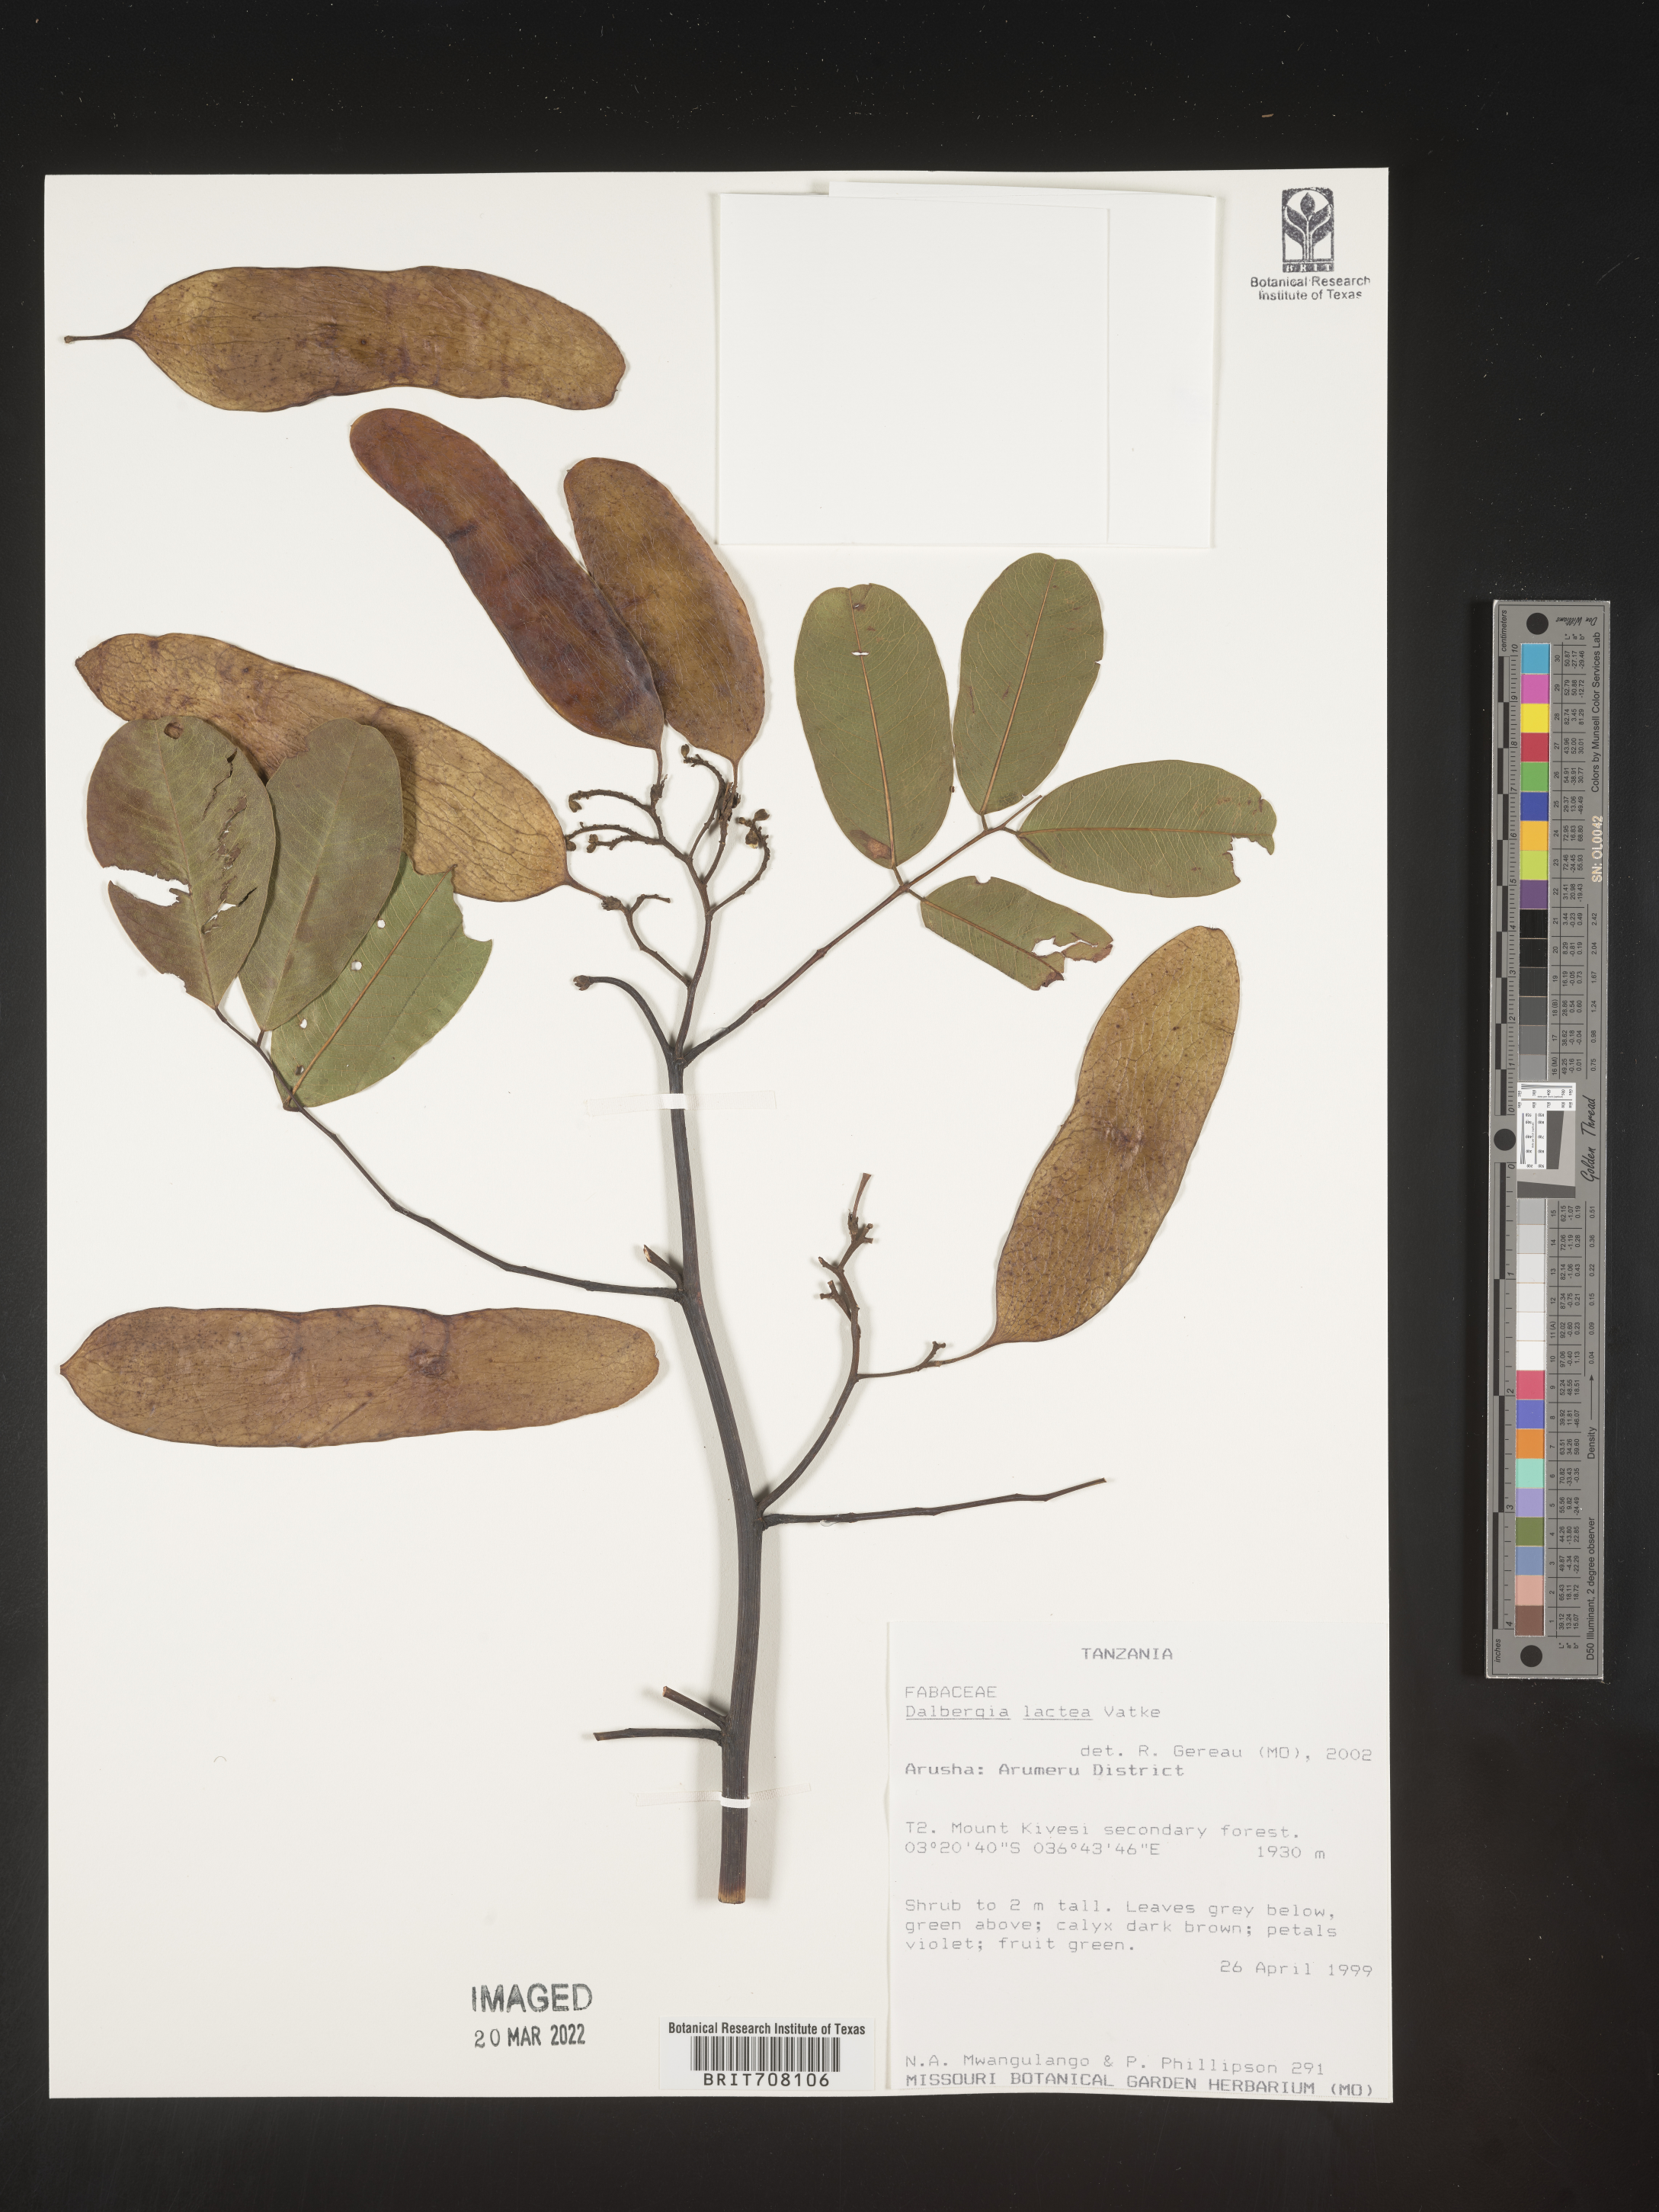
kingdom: Plantae
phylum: Tracheophyta
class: Magnoliopsida
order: Fabales
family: Fabaceae
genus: Dalbergia
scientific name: Dalbergia
